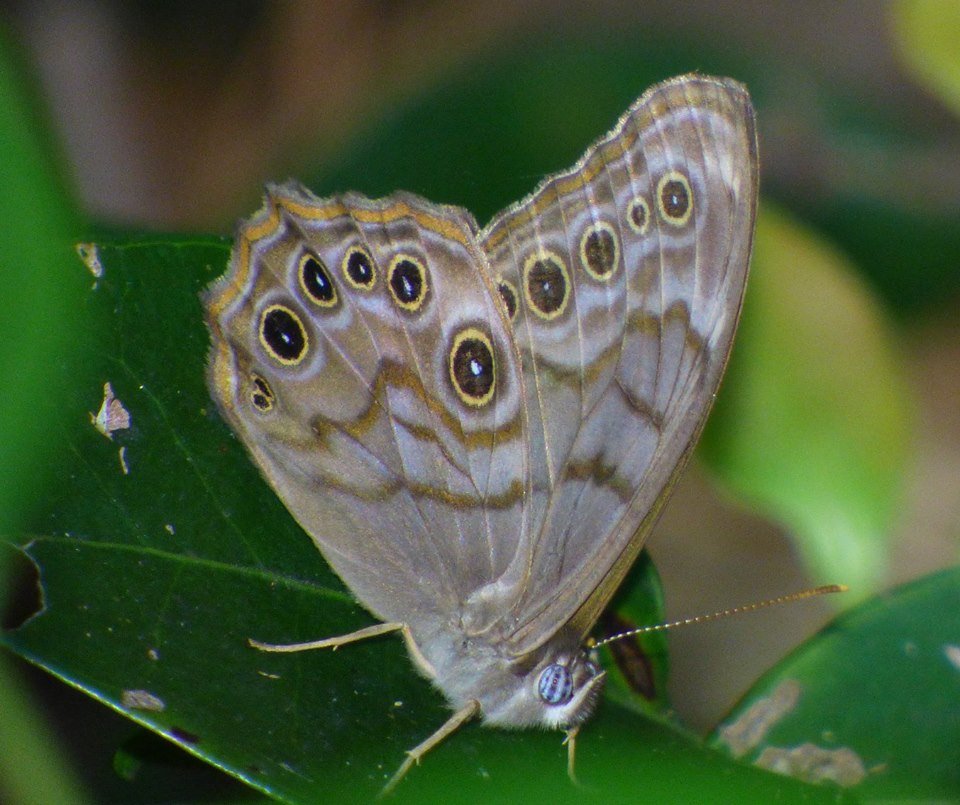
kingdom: Animalia
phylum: Arthropoda
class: Insecta
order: Lepidoptera
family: Nymphalidae
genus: Lethe
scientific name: Lethe creola
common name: Creole Pearly-Eye
